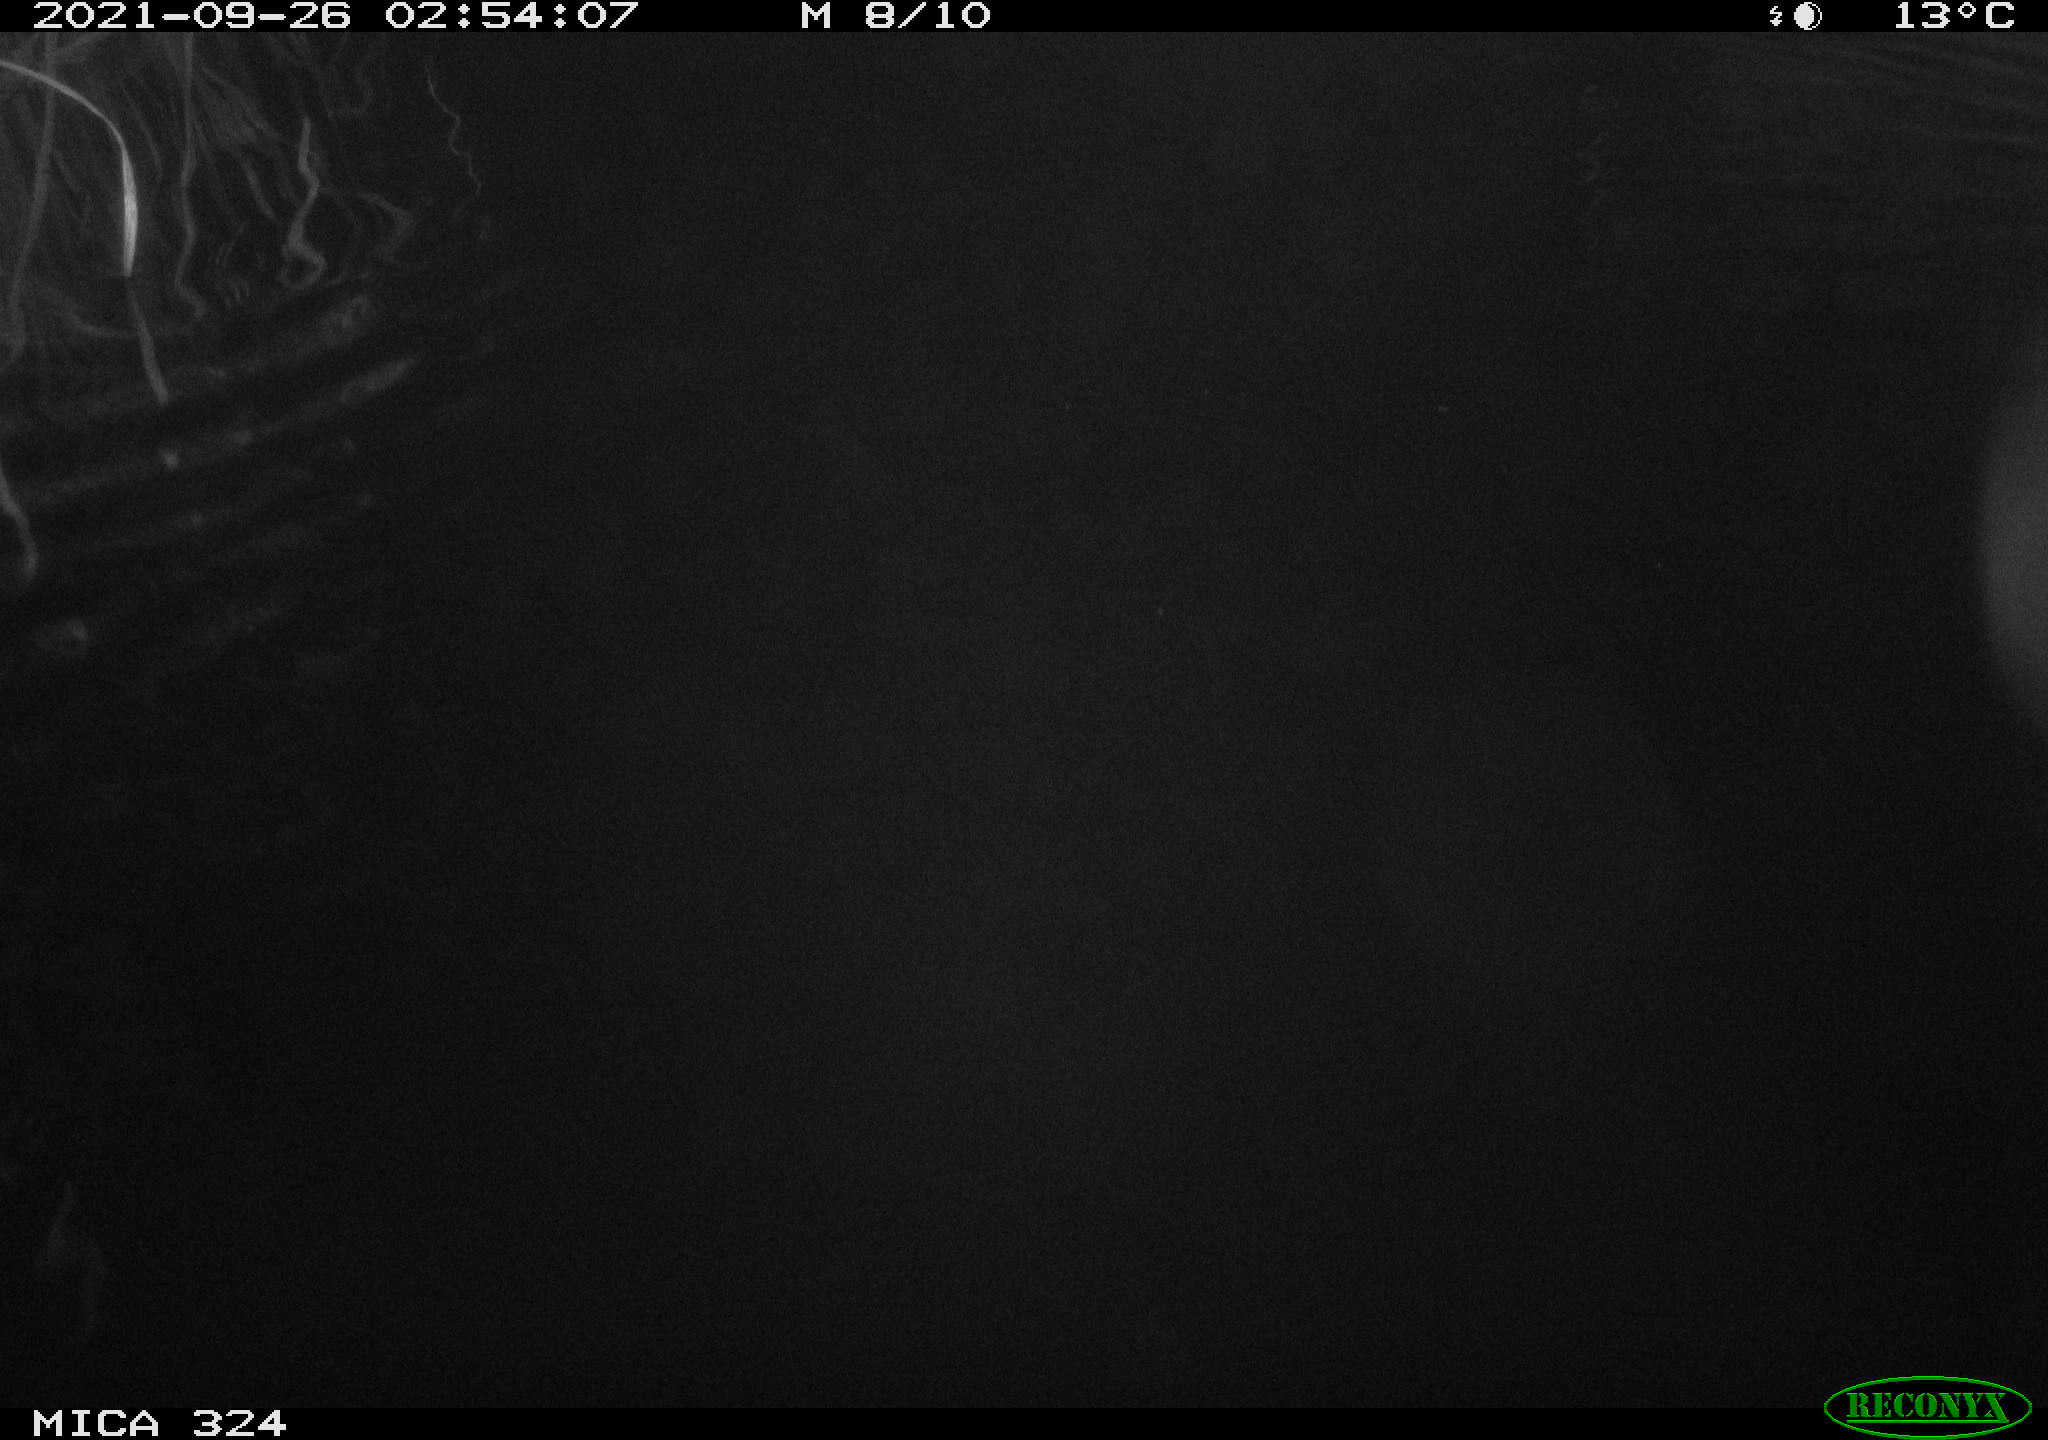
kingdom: Animalia
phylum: Chordata
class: Mammalia
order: Rodentia
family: Cricetidae
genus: Ondatra
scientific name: Ondatra zibethicus
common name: Muskrat
